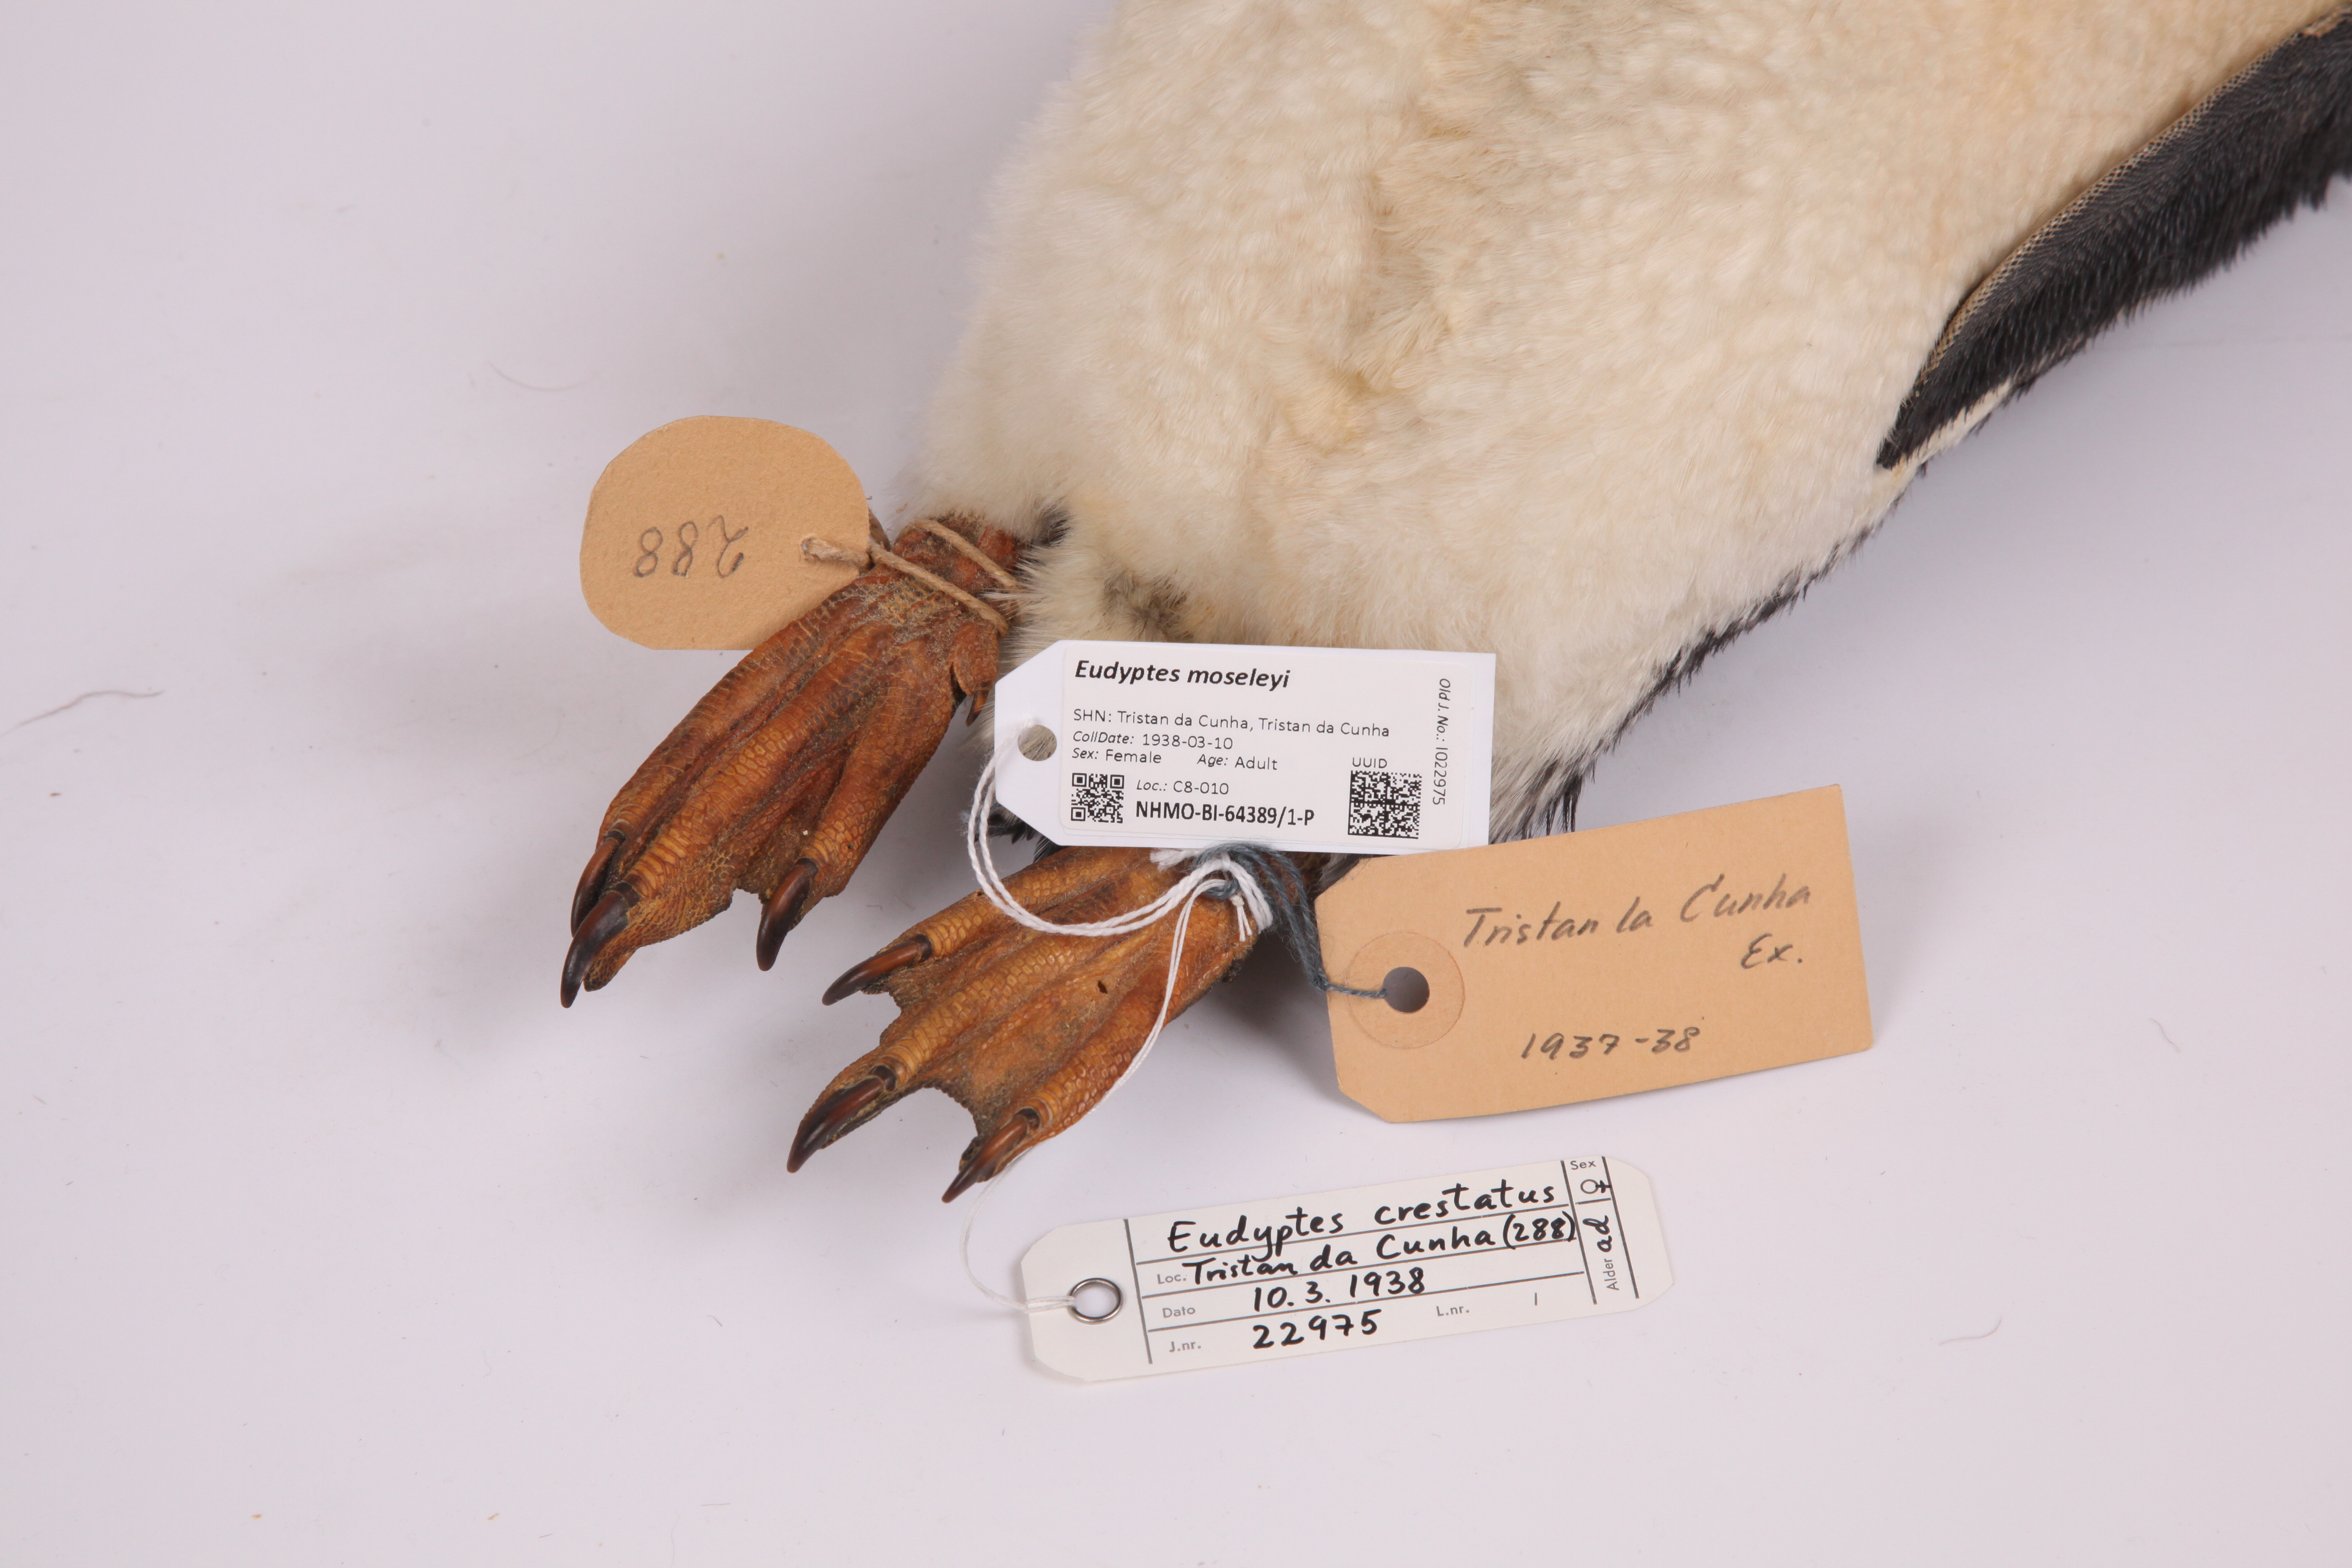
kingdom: Animalia
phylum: Chordata
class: Aves
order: Sphenisciformes
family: Spheniscidae
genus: Eudyptes
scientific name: Eudyptes moseleyi
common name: Northern rockhopper penguin
